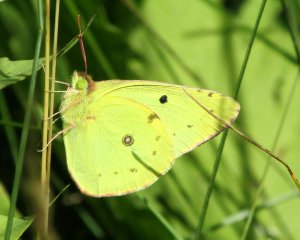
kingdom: Animalia
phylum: Arthropoda
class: Insecta
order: Lepidoptera
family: Pieridae
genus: Colias
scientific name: Colias philodice
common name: Clouded Sulphur
